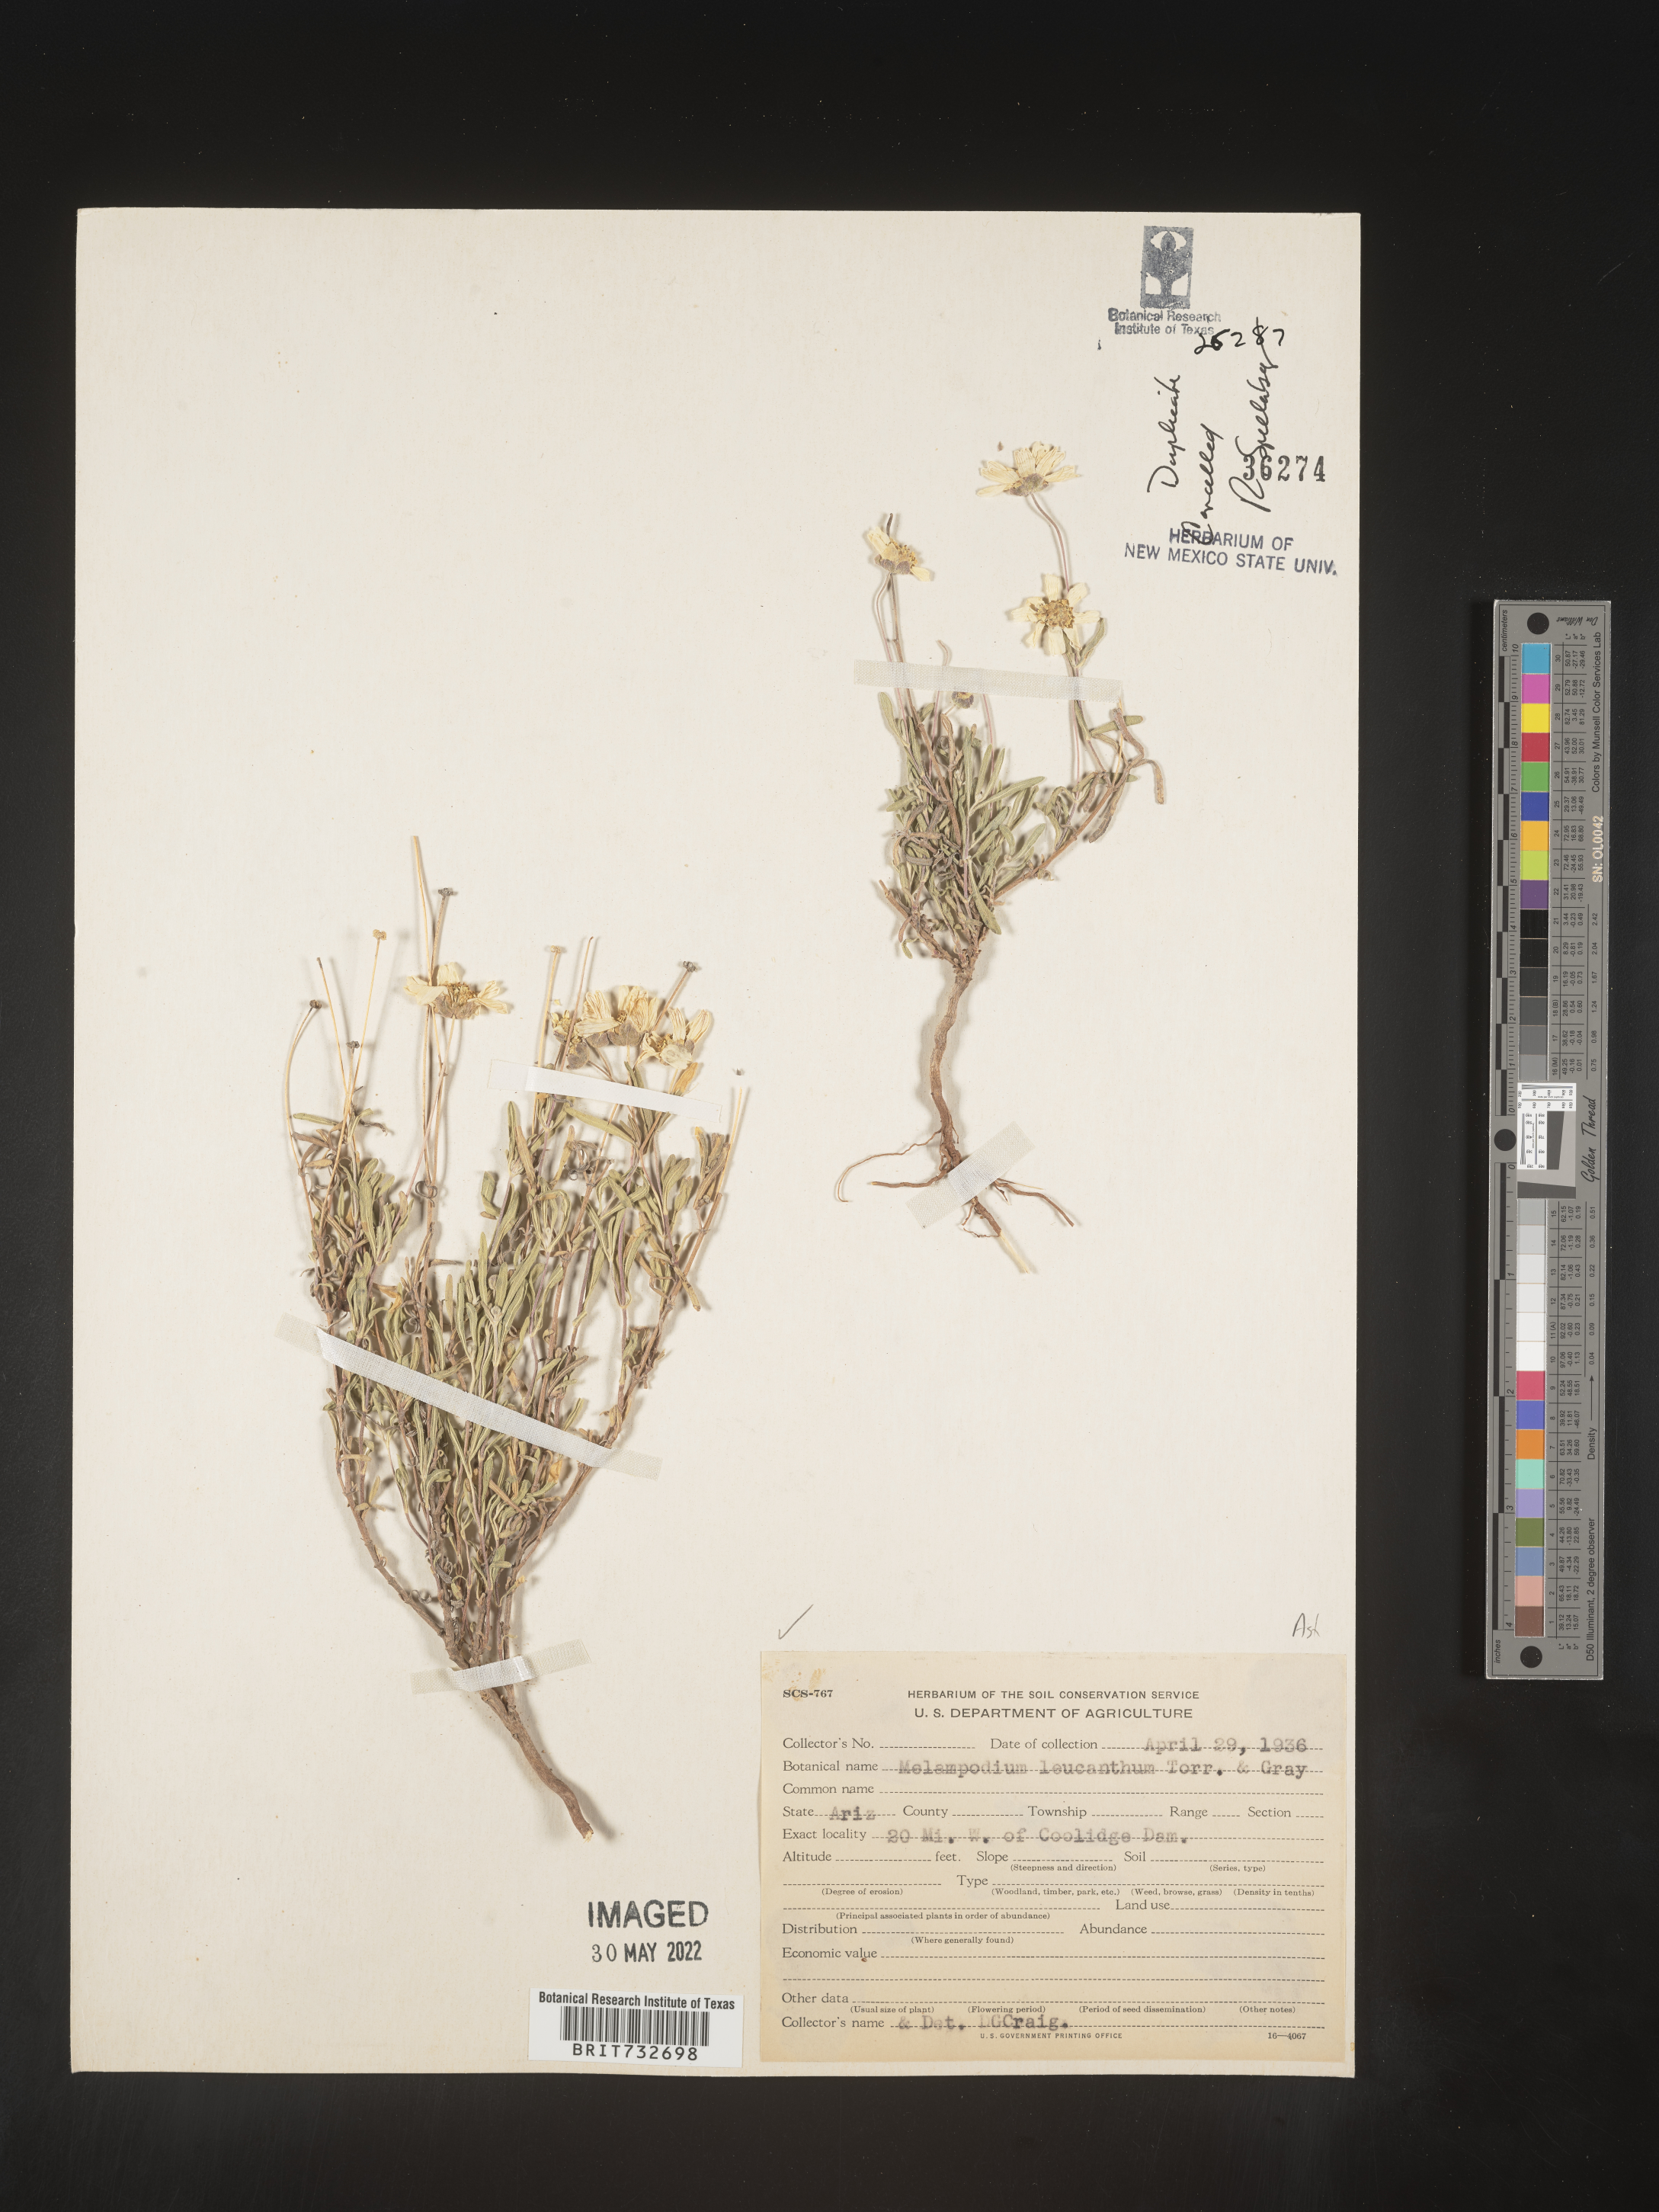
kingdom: Plantae
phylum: Tracheophyta
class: Magnoliopsida
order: Asterales
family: Asteraceae
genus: Melampodium
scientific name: Melampodium leucanthum
